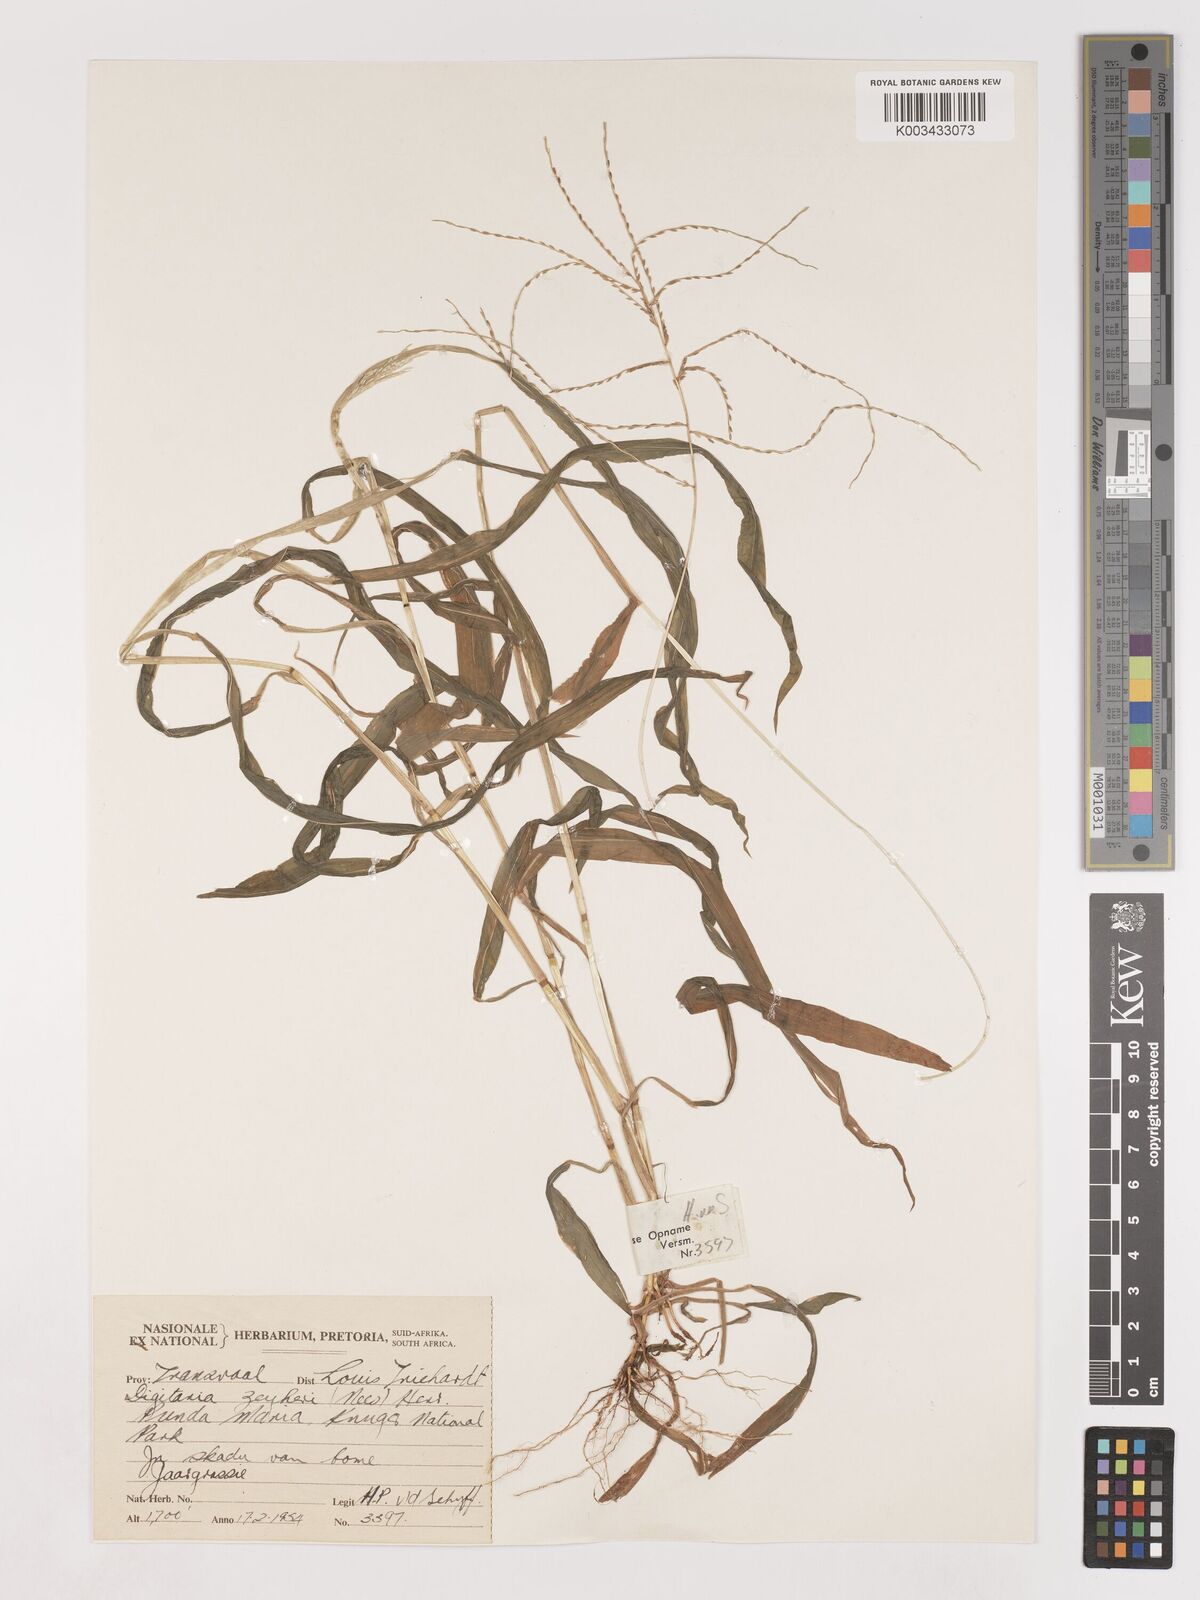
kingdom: Plantae
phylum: Tracheophyta
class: Liliopsida
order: Poales
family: Poaceae
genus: Digitaria
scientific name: Digitaria velutina
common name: Long-plume finger grass
